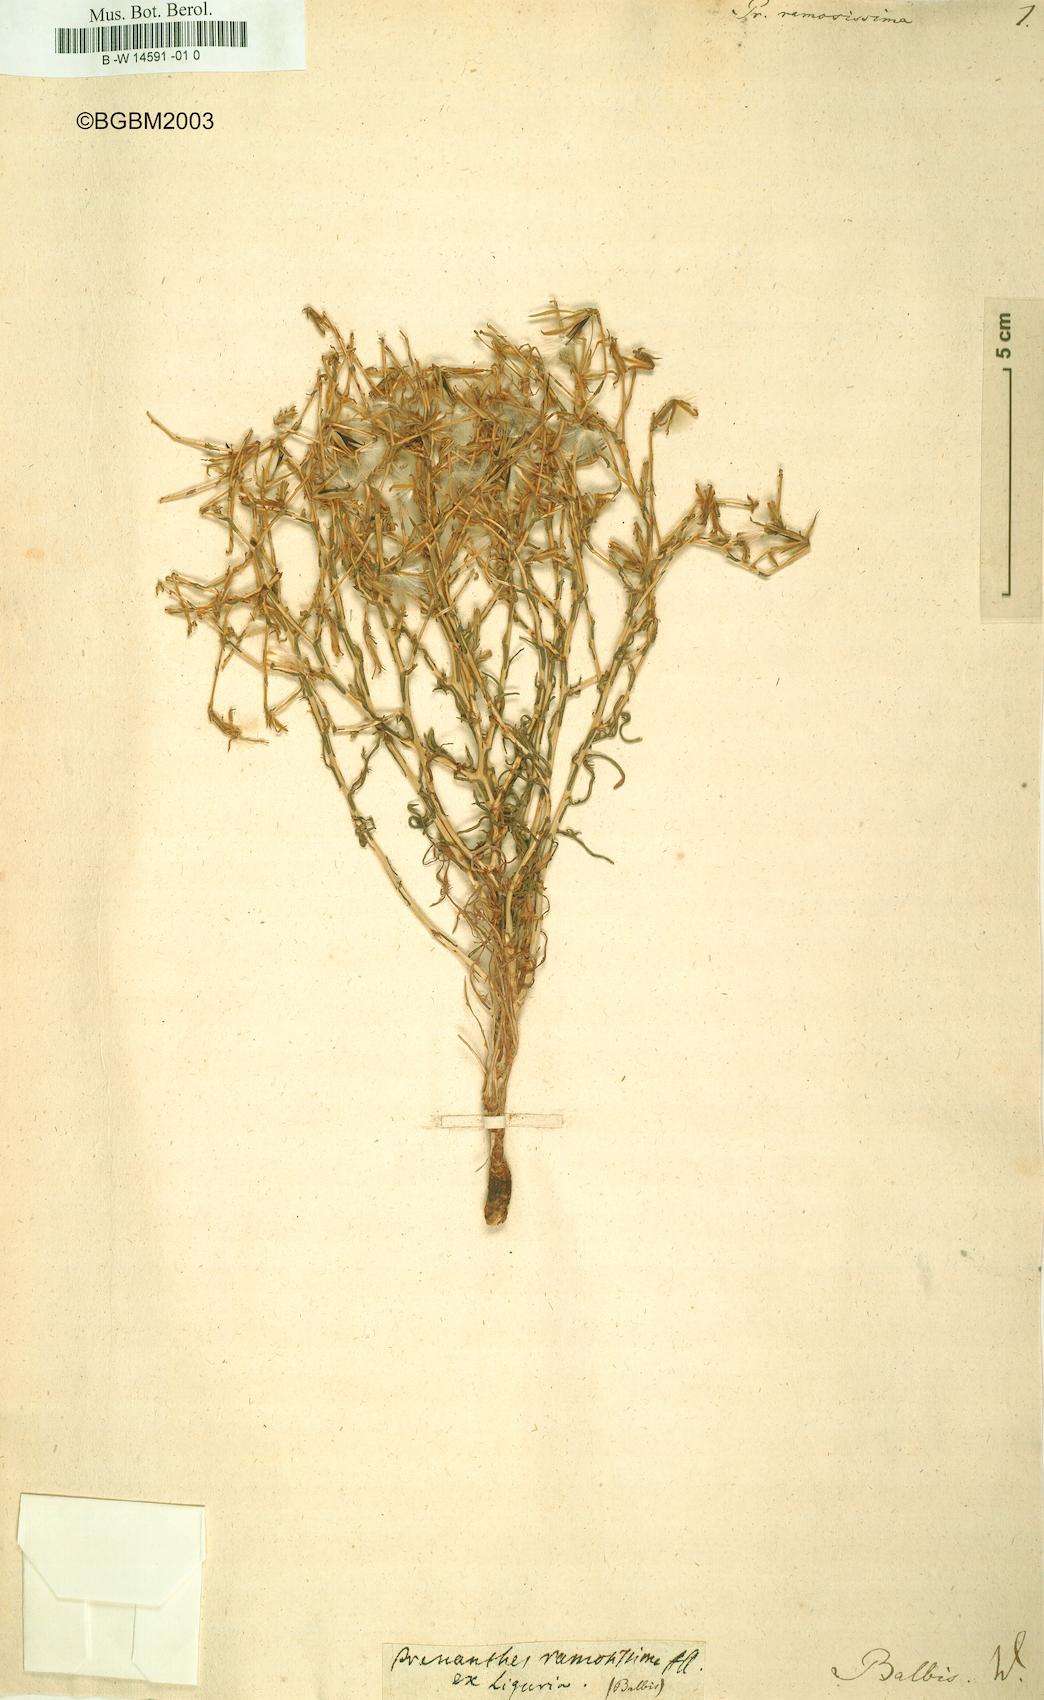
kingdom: Plantae
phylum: Tracheophyta
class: Magnoliopsida
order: Asterales
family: Asteraceae
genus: Lactuca
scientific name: Lactuca viminea
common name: Pliant lettuce
